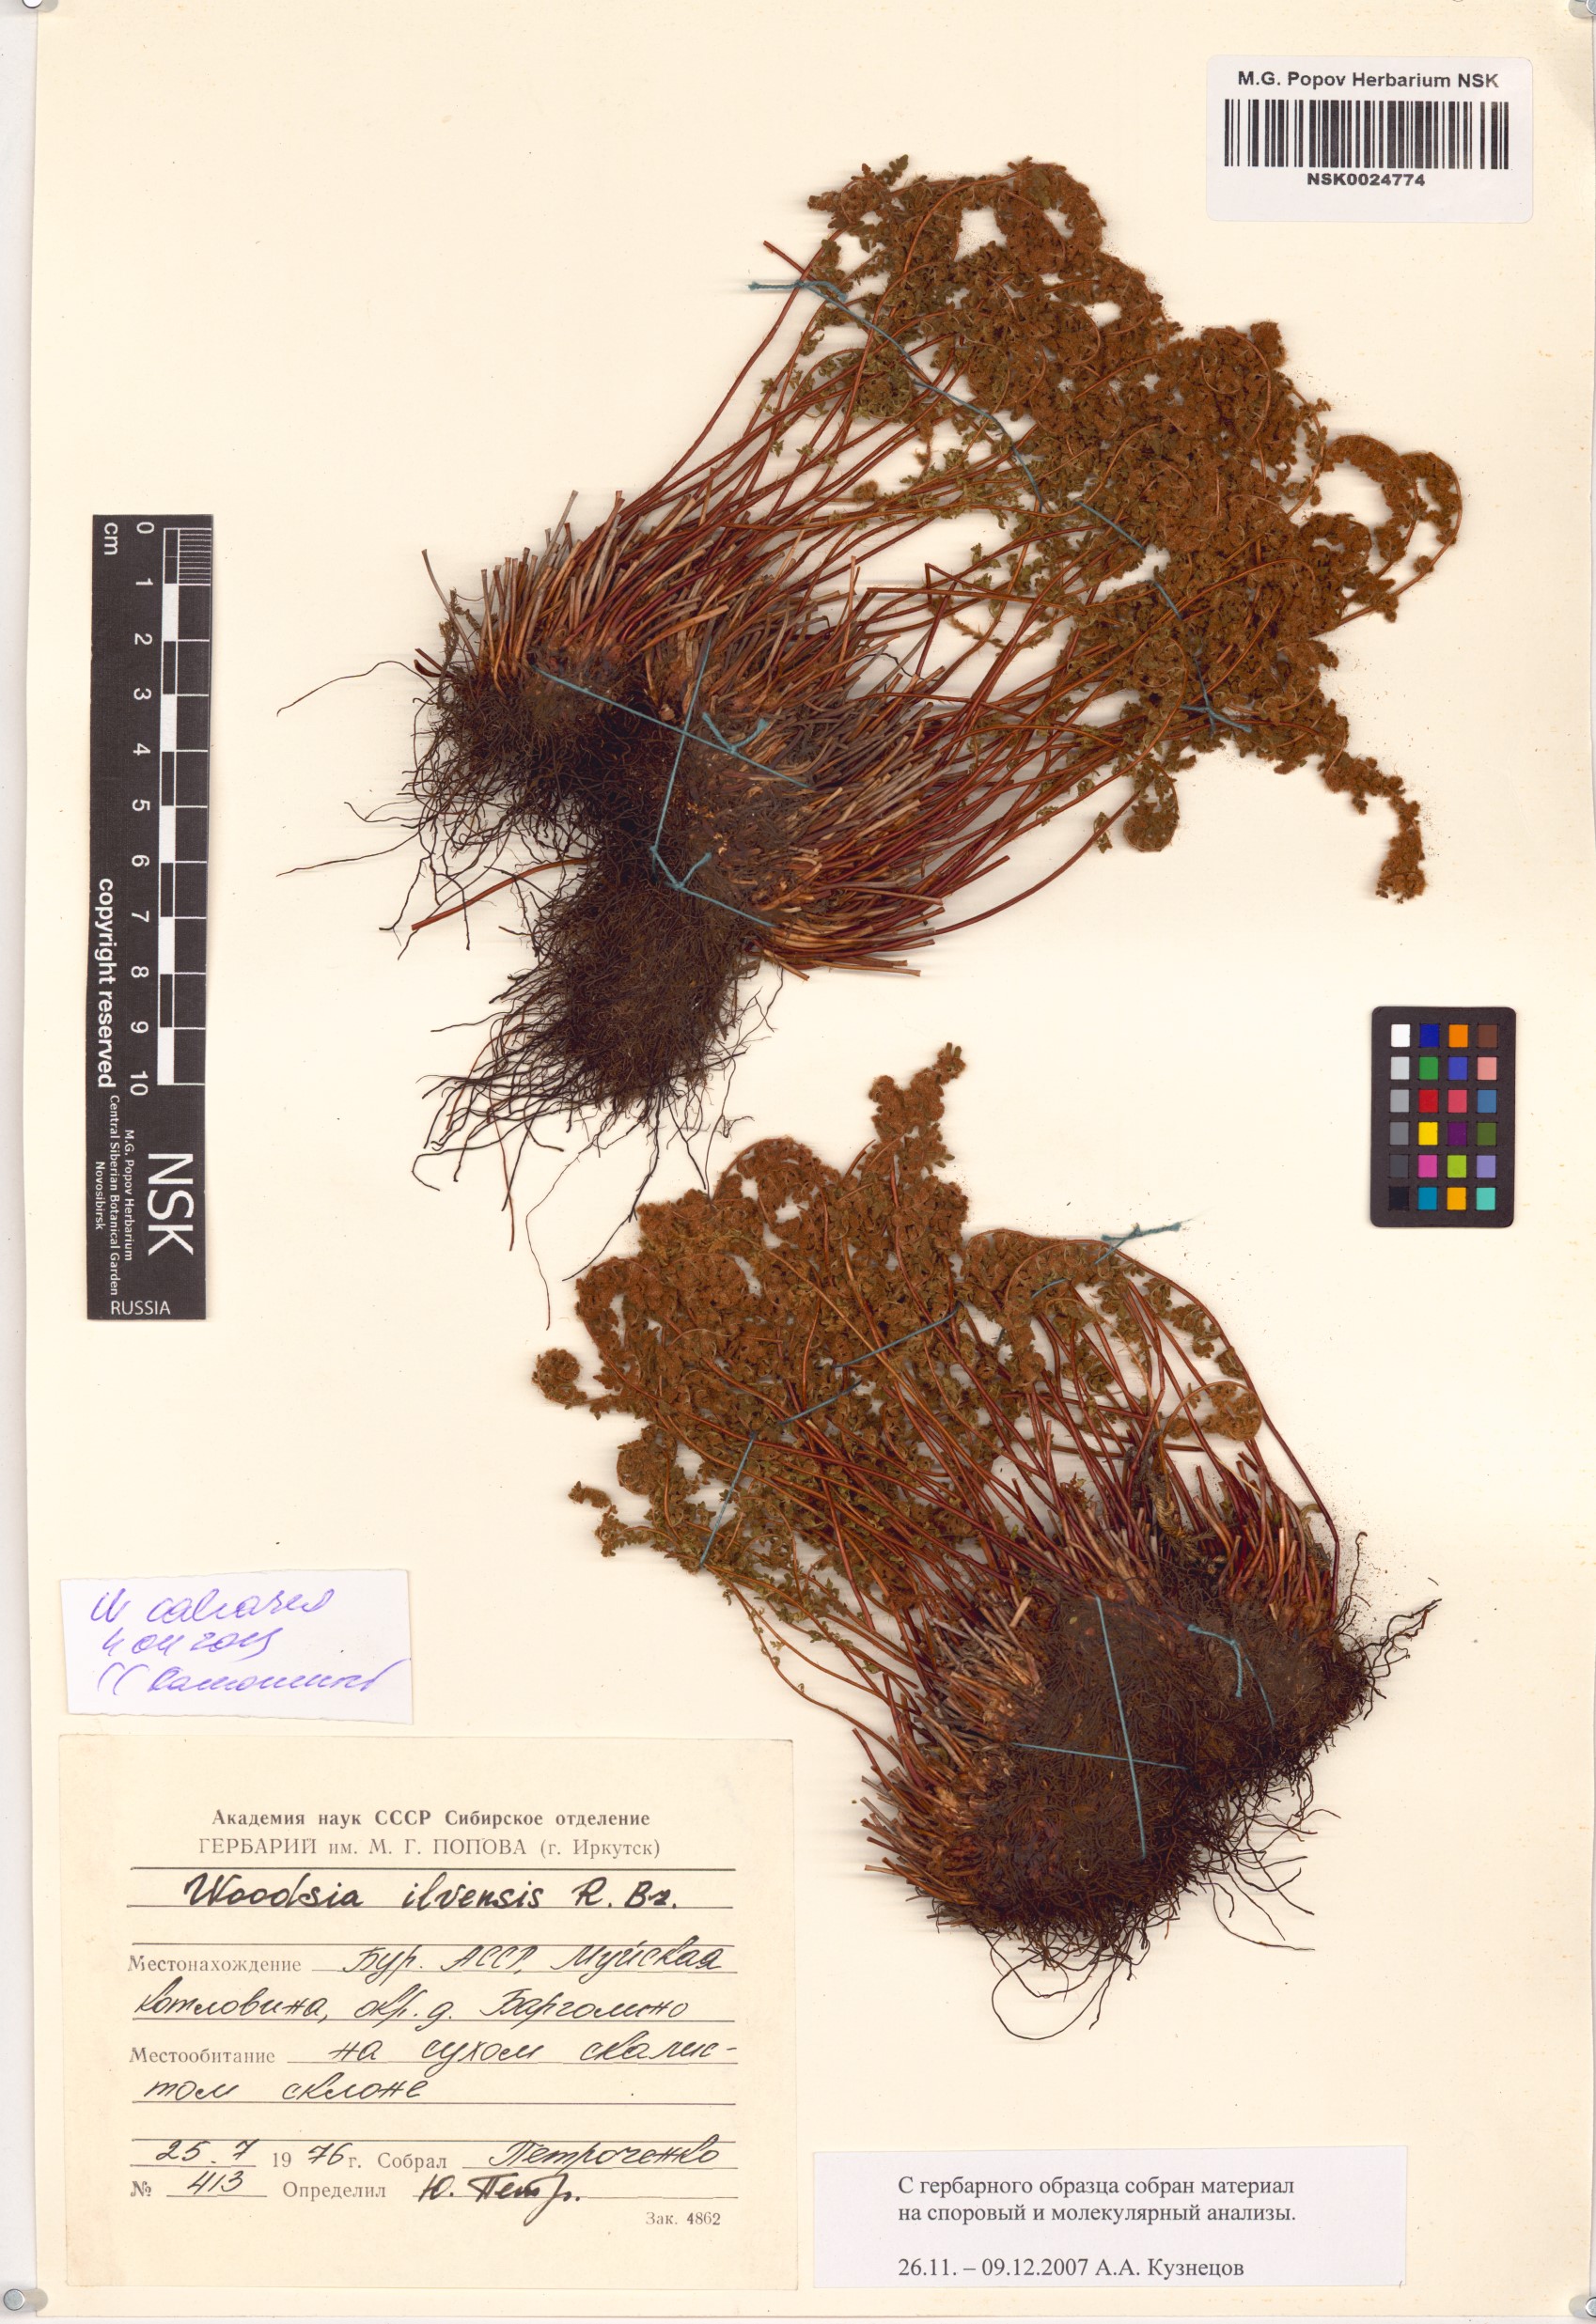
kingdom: Plantae
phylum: Tracheophyta
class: Polypodiopsida
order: Polypodiales
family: Woodsiaceae
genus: Woodsia
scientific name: Woodsia calcarea
